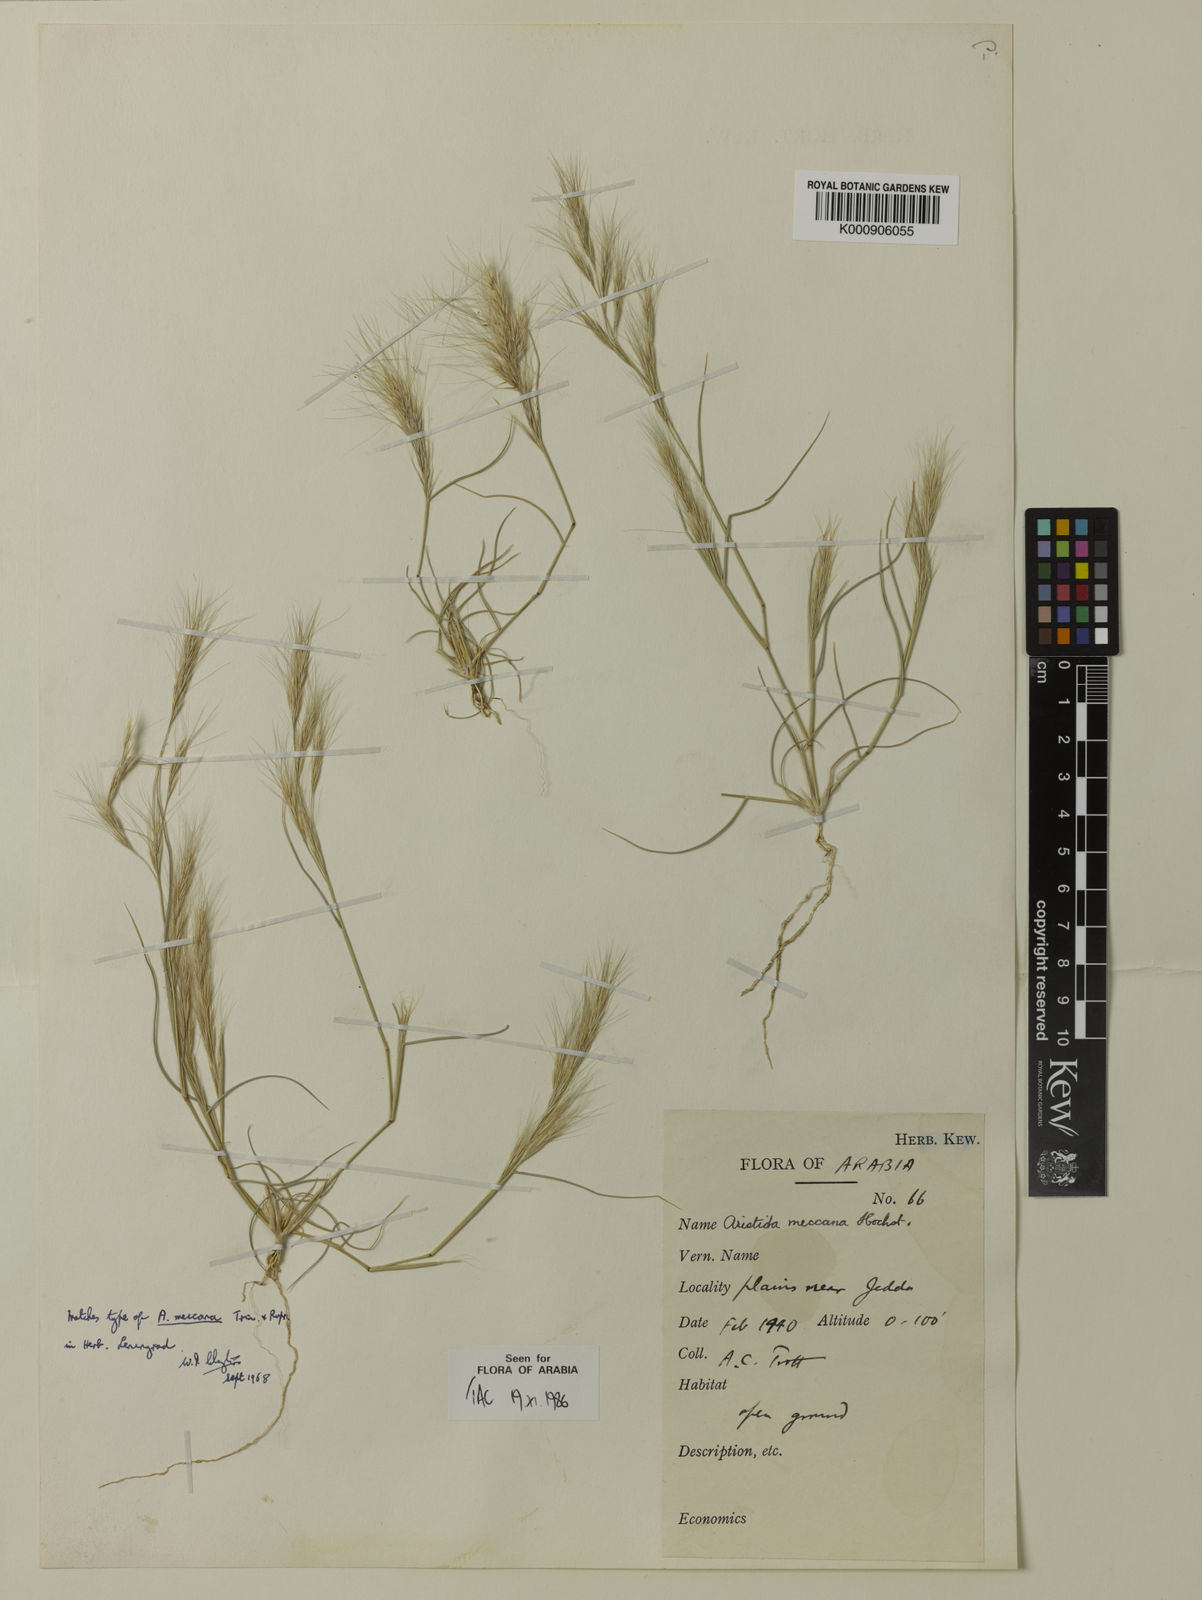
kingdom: Plantae
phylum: Tracheophyta
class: Liliopsida
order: Poales
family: Poaceae
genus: Aristida
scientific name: Aristida mutabilis
